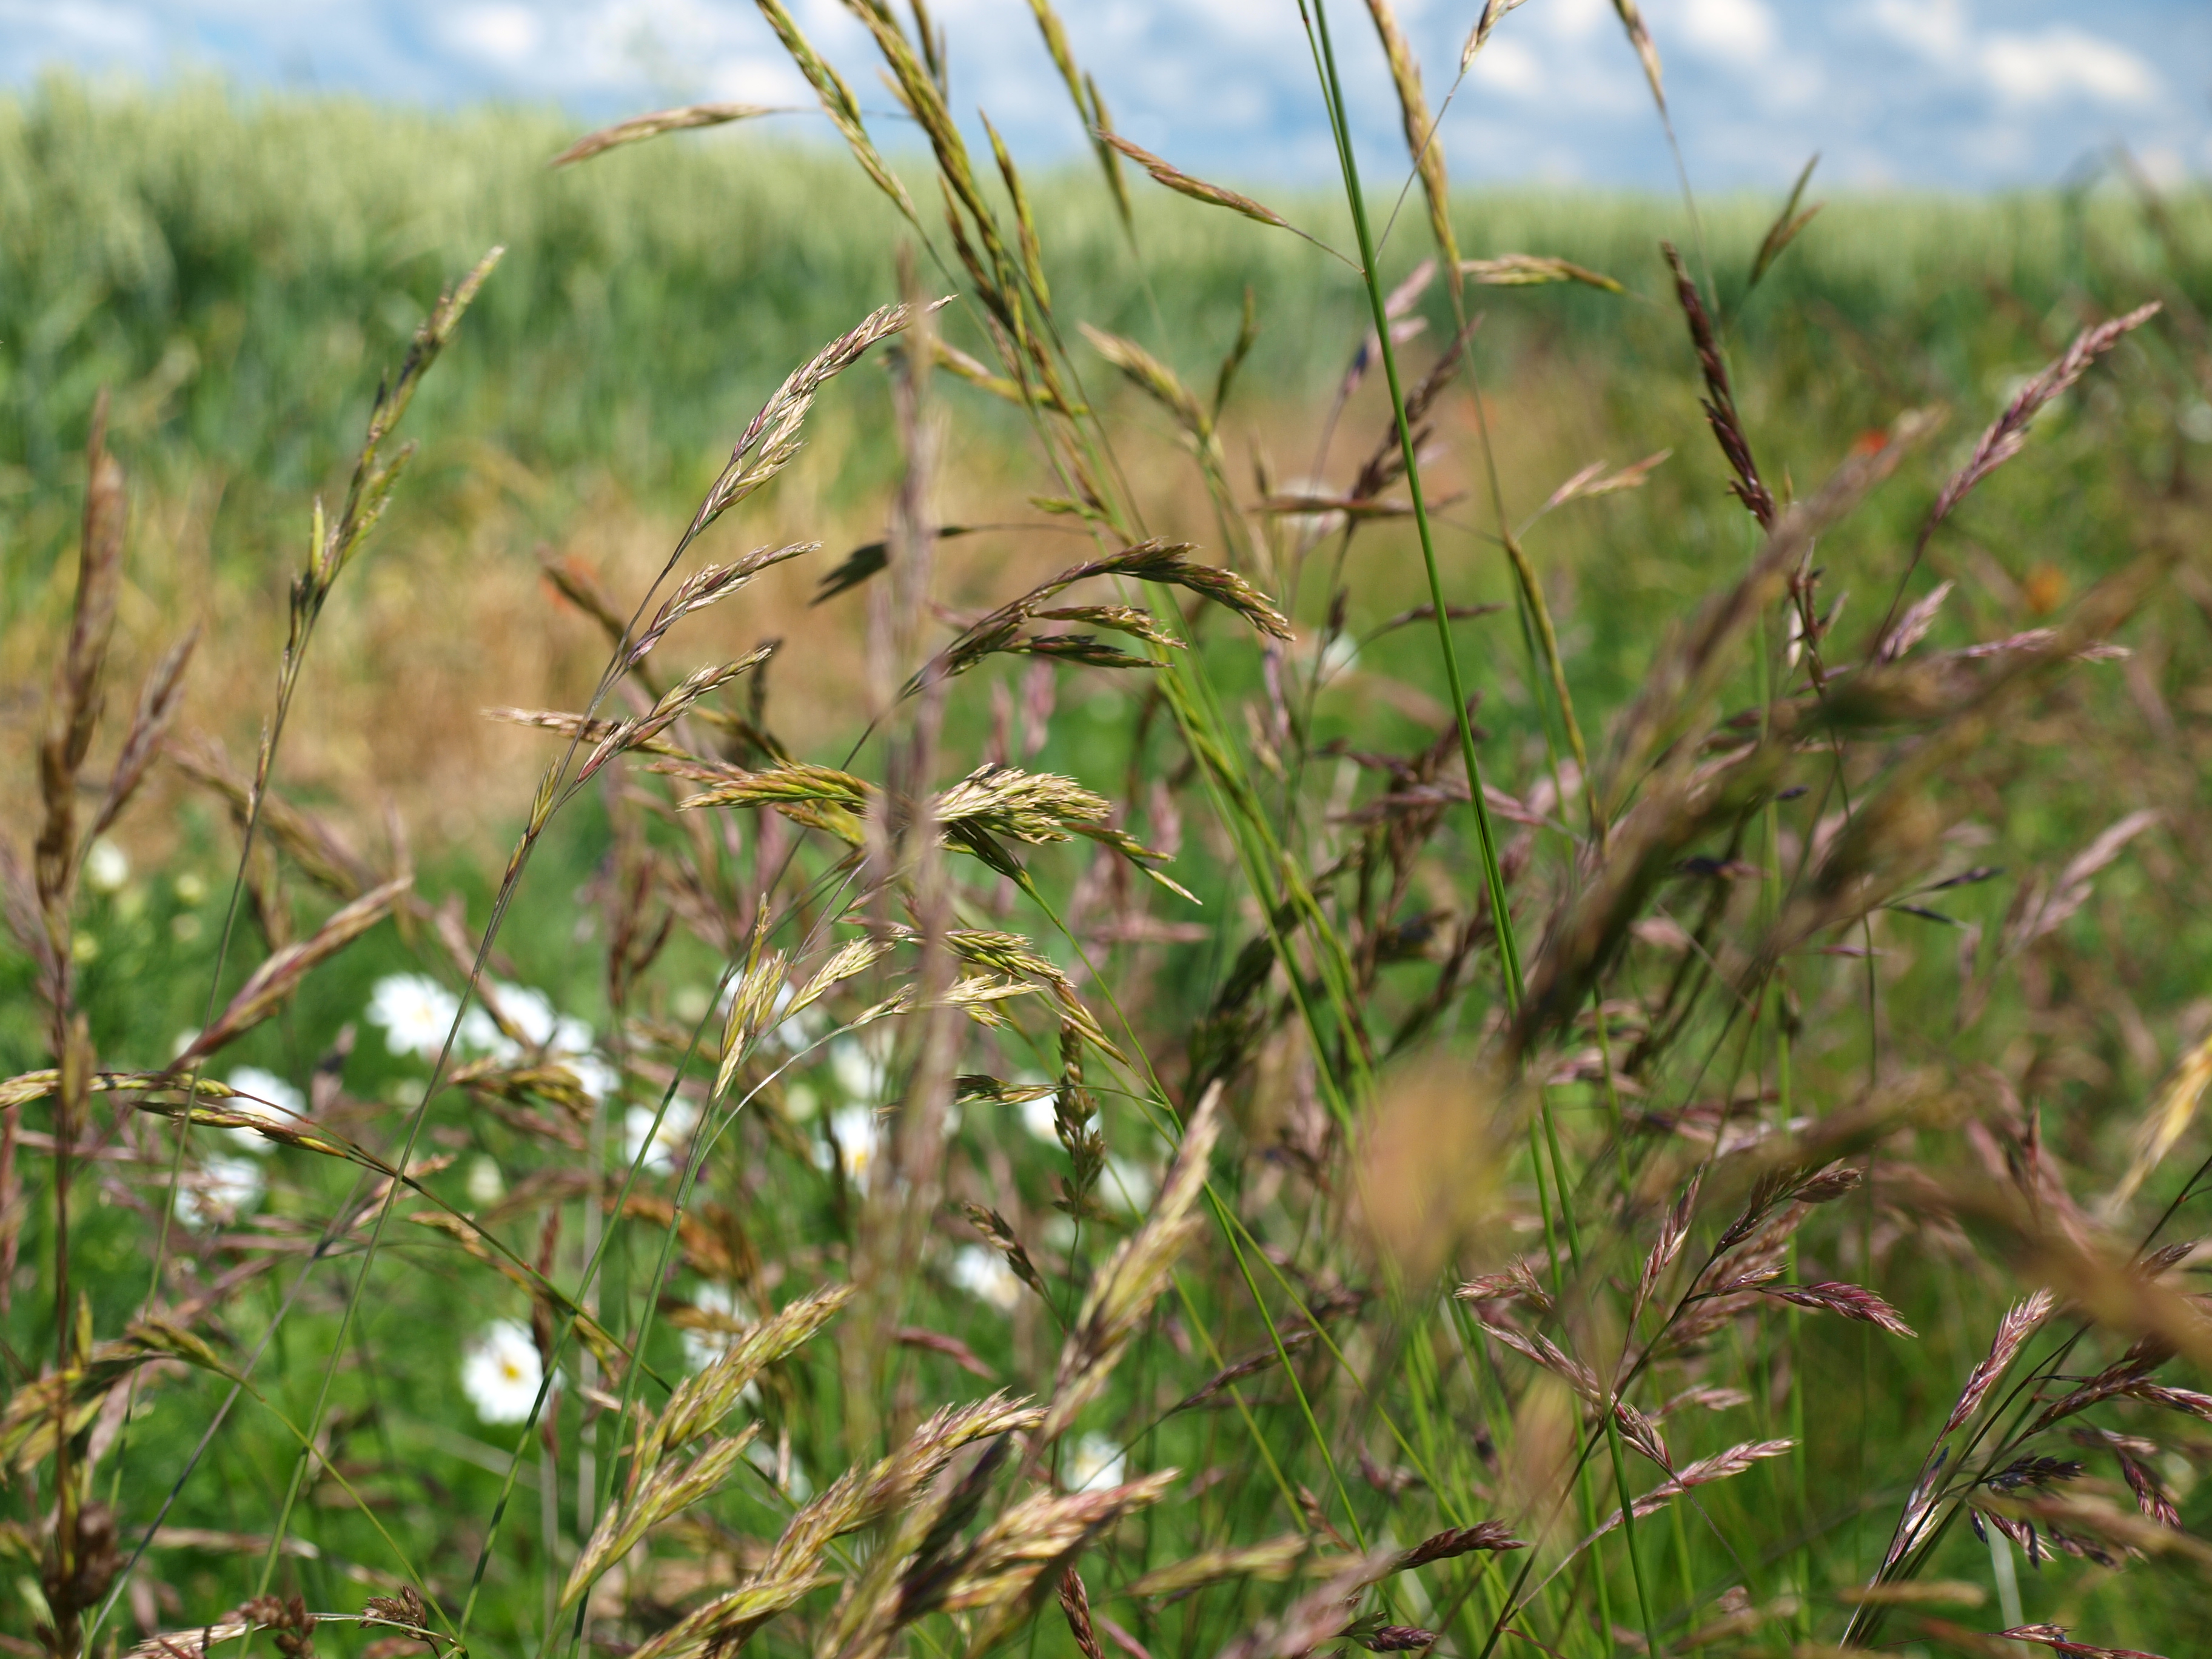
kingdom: Plantae
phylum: Tracheophyta
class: Liliopsida
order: Poales
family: Poaceae
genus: Festuca
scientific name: Festuca rubra
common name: Red fescue
